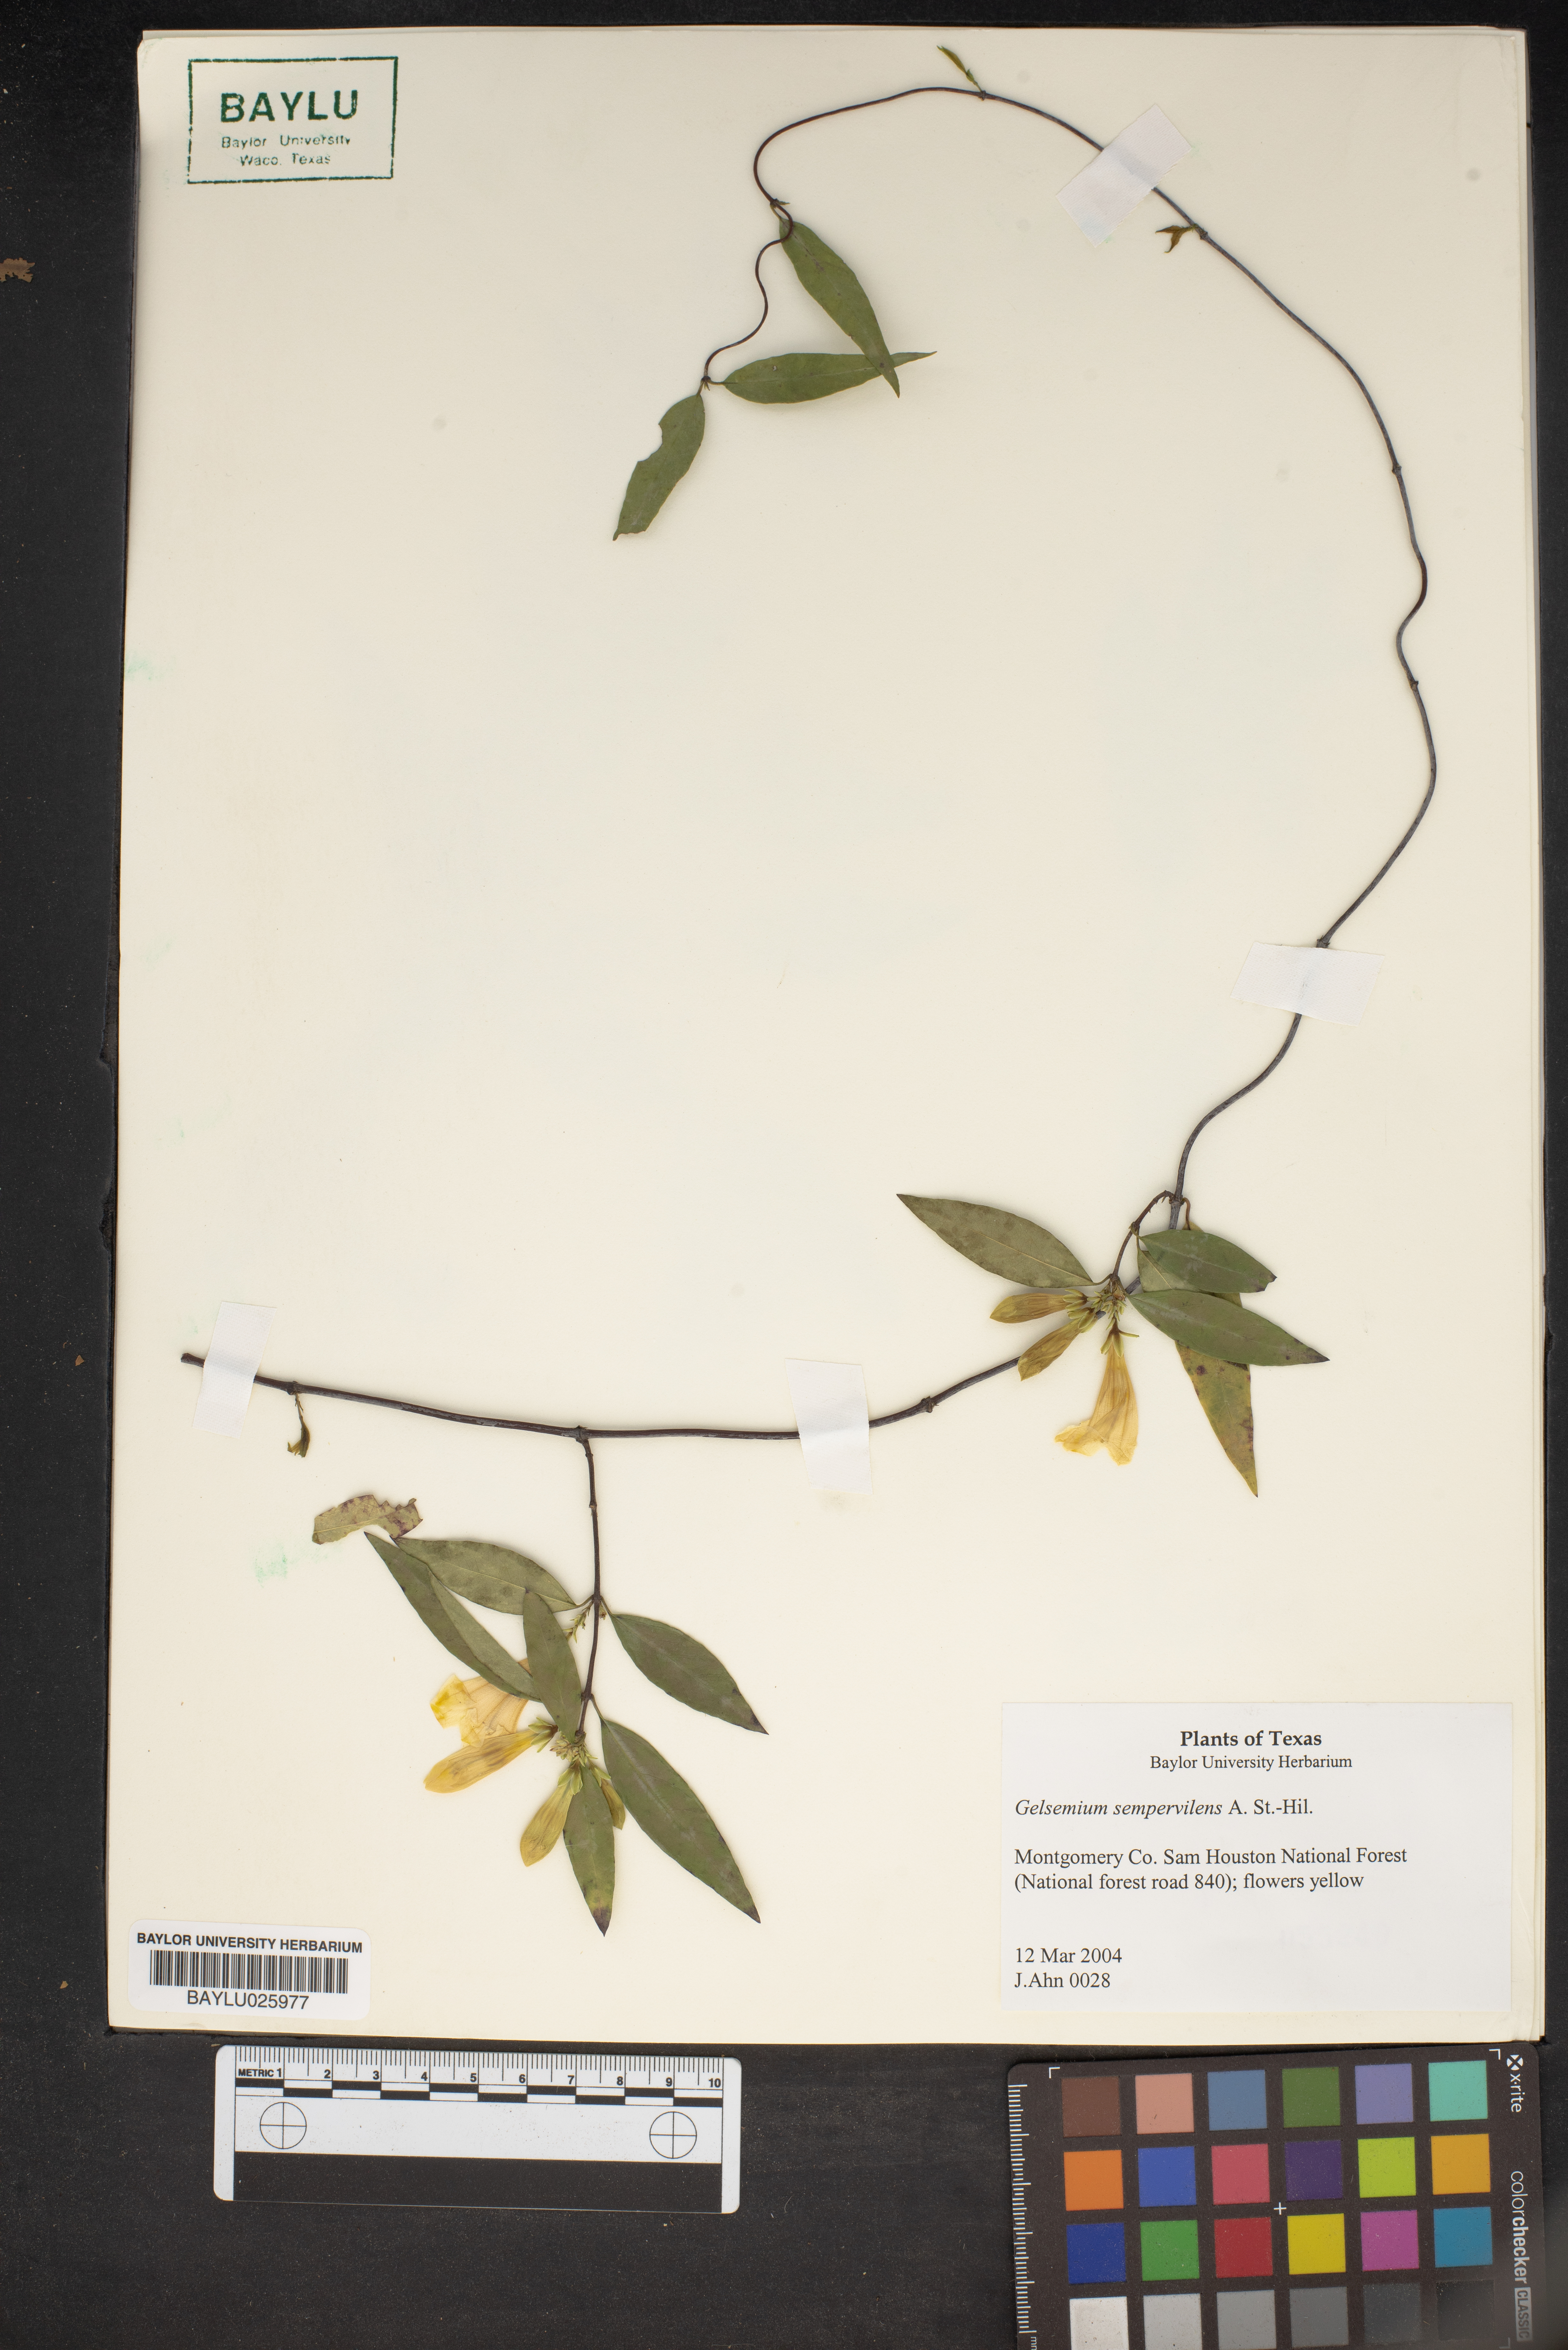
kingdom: Plantae
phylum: Tracheophyta
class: Magnoliopsida
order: Gentianales
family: Gelsemiaceae
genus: Gelsemium
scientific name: Gelsemium sempervirens
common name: Carolina-jasmine
